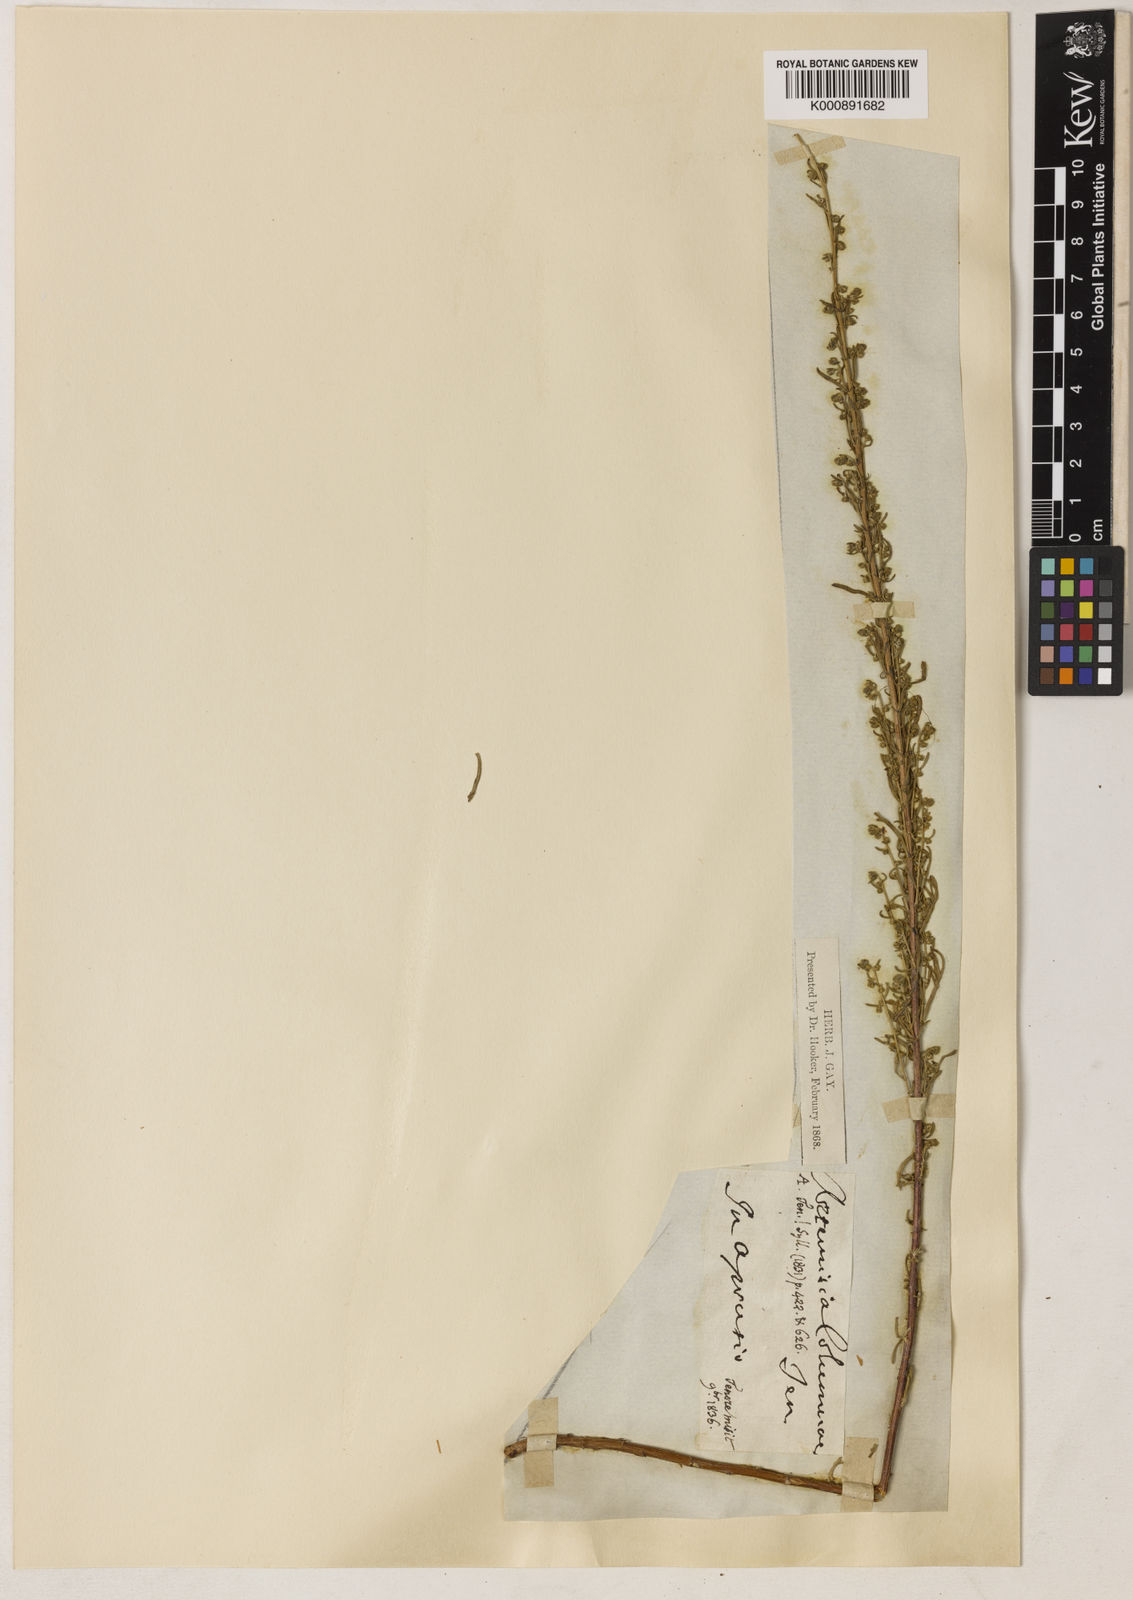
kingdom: Plantae
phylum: Tracheophyta
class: Magnoliopsida
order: Asterales
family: Asteraceae
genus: Artemisia
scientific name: Artemisia alba
